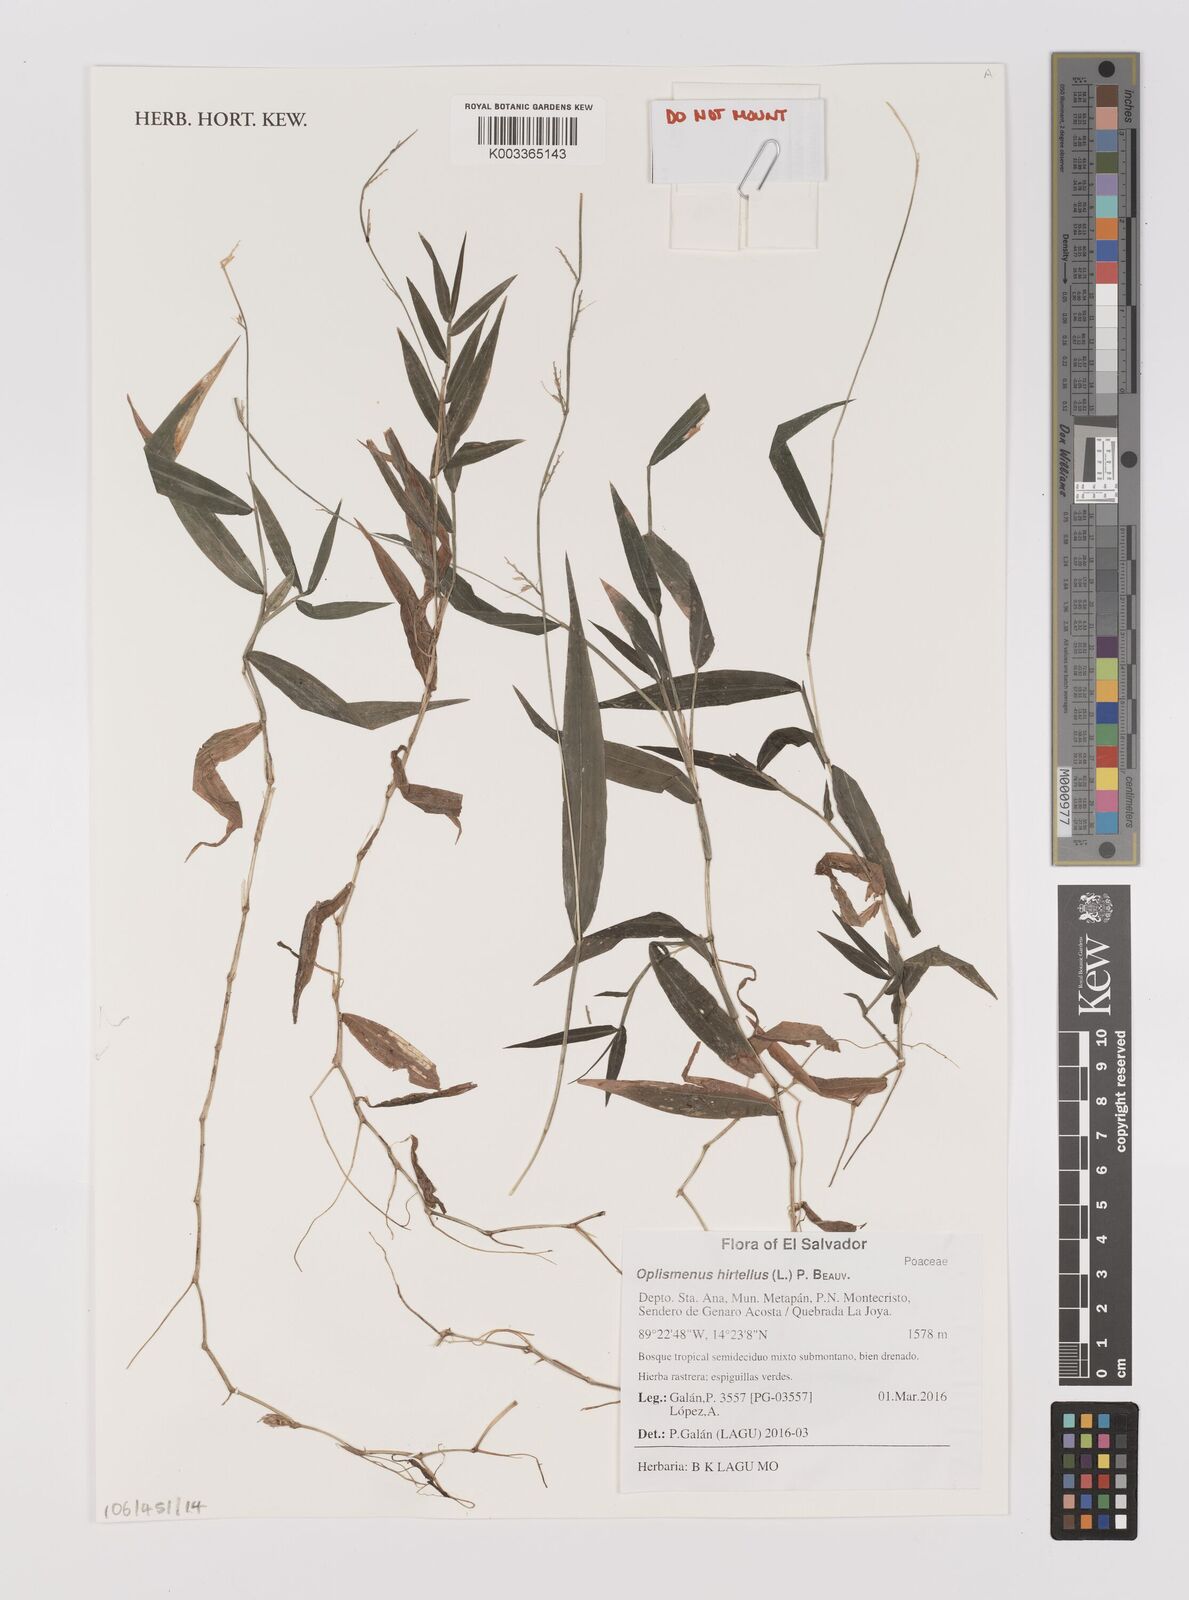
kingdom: Plantae
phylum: Tracheophyta
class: Liliopsida
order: Poales
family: Poaceae
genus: Oplismenus
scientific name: Oplismenus hirtellus
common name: Basketgrass
